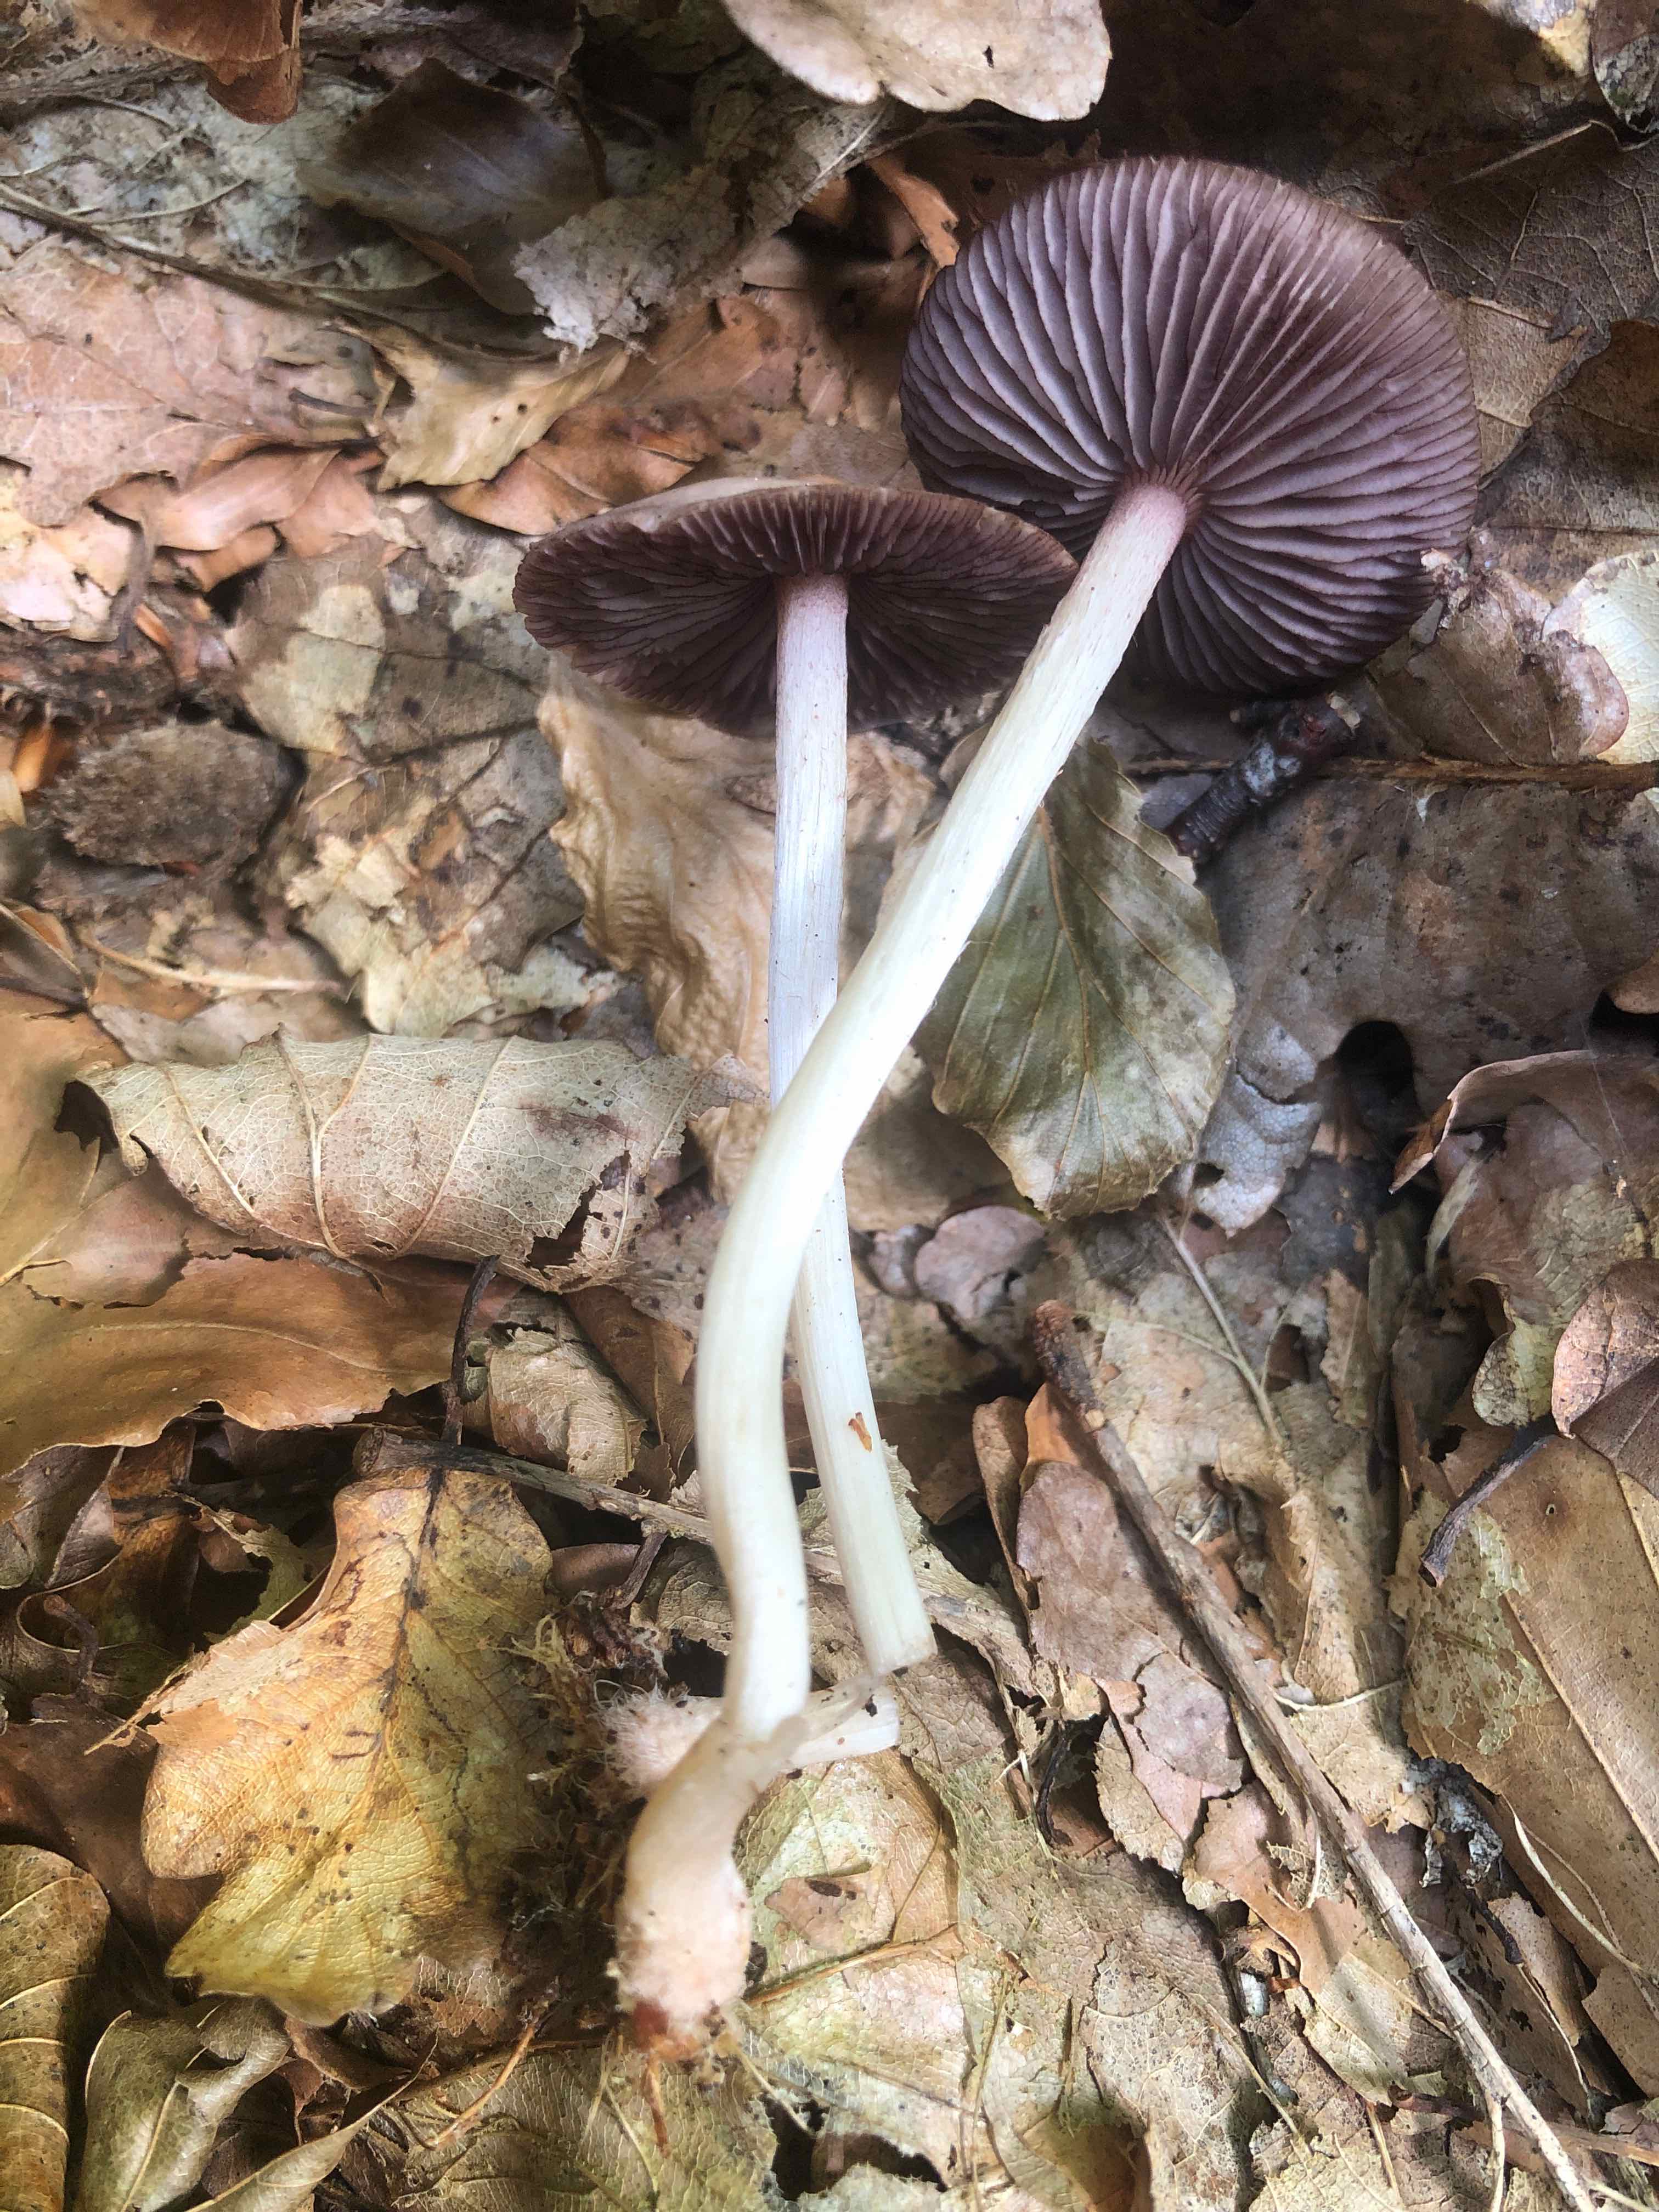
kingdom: Fungi
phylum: Basidiomycota
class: Agaricomycetes
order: Agaricales
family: Mycenaceae
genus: Mycena
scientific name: Mycena pelianthina
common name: mørkbladet huesvamp
